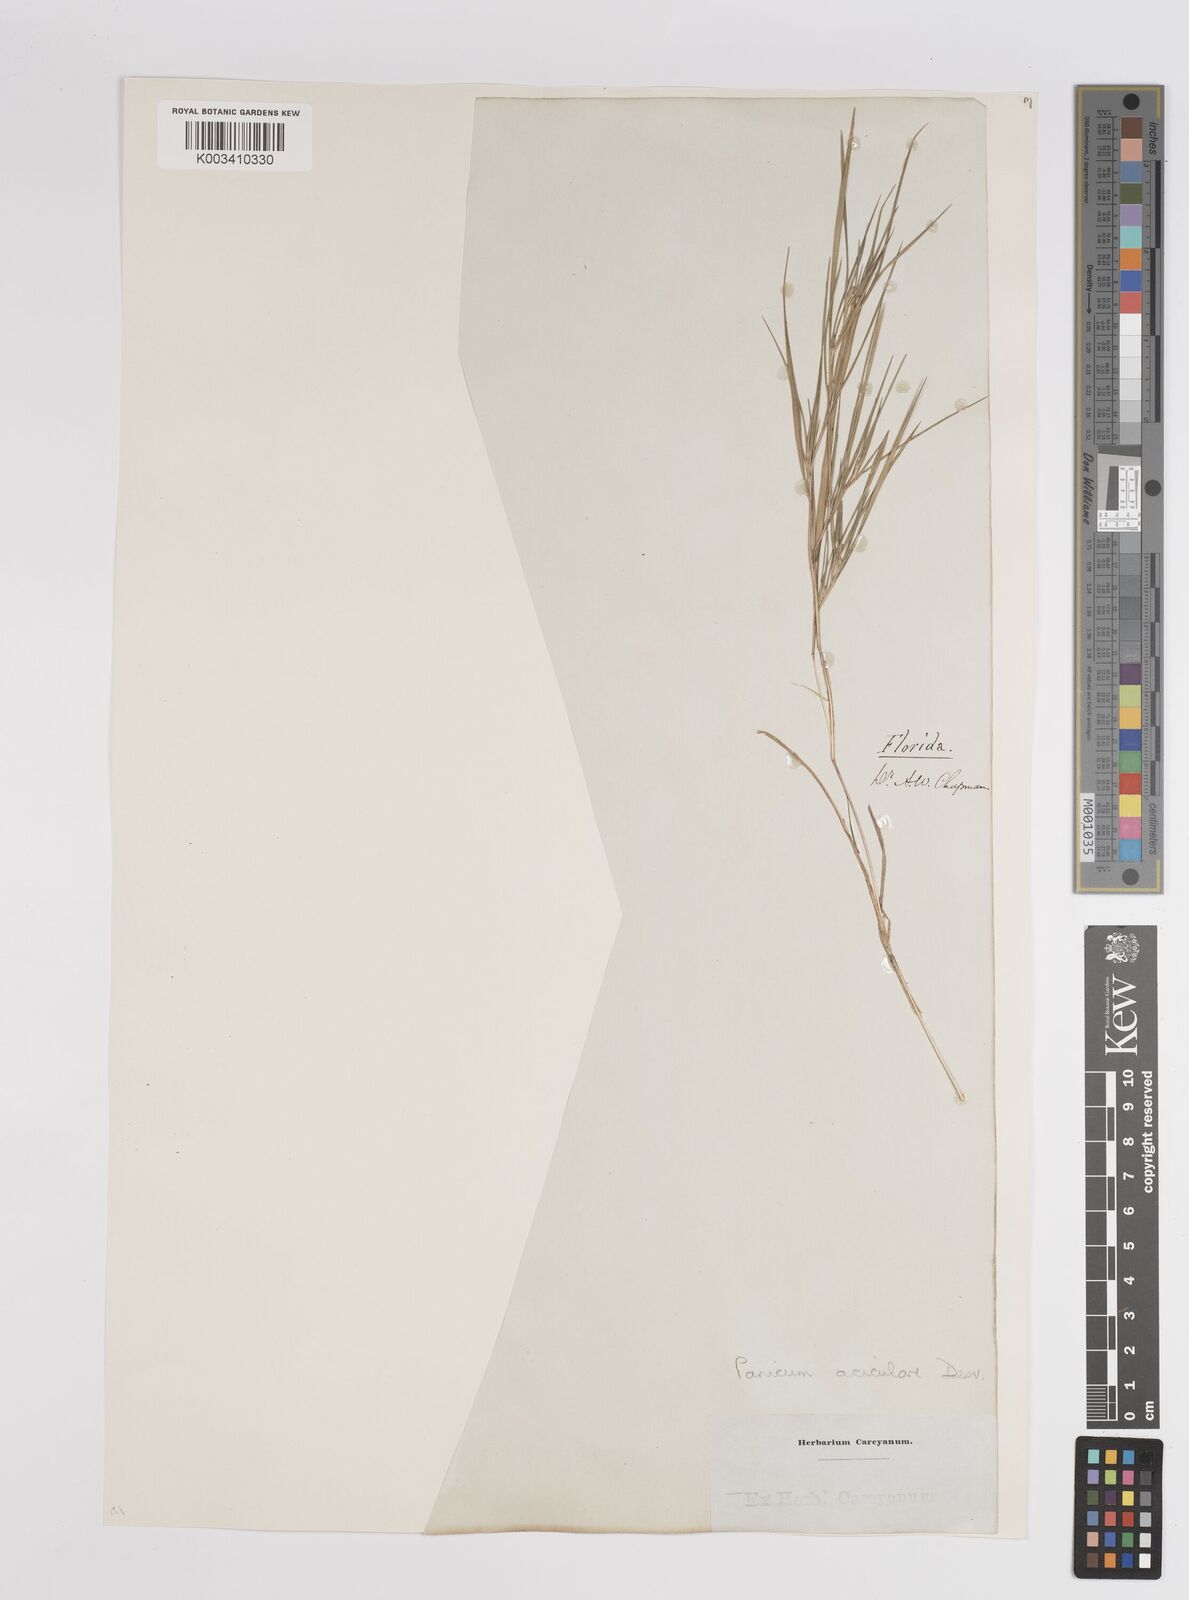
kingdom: Plantae
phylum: Tracheophyta
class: Liliopsida
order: Poales
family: Poaceae
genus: Dichanthelium
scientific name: Dichanthelium aciculare
